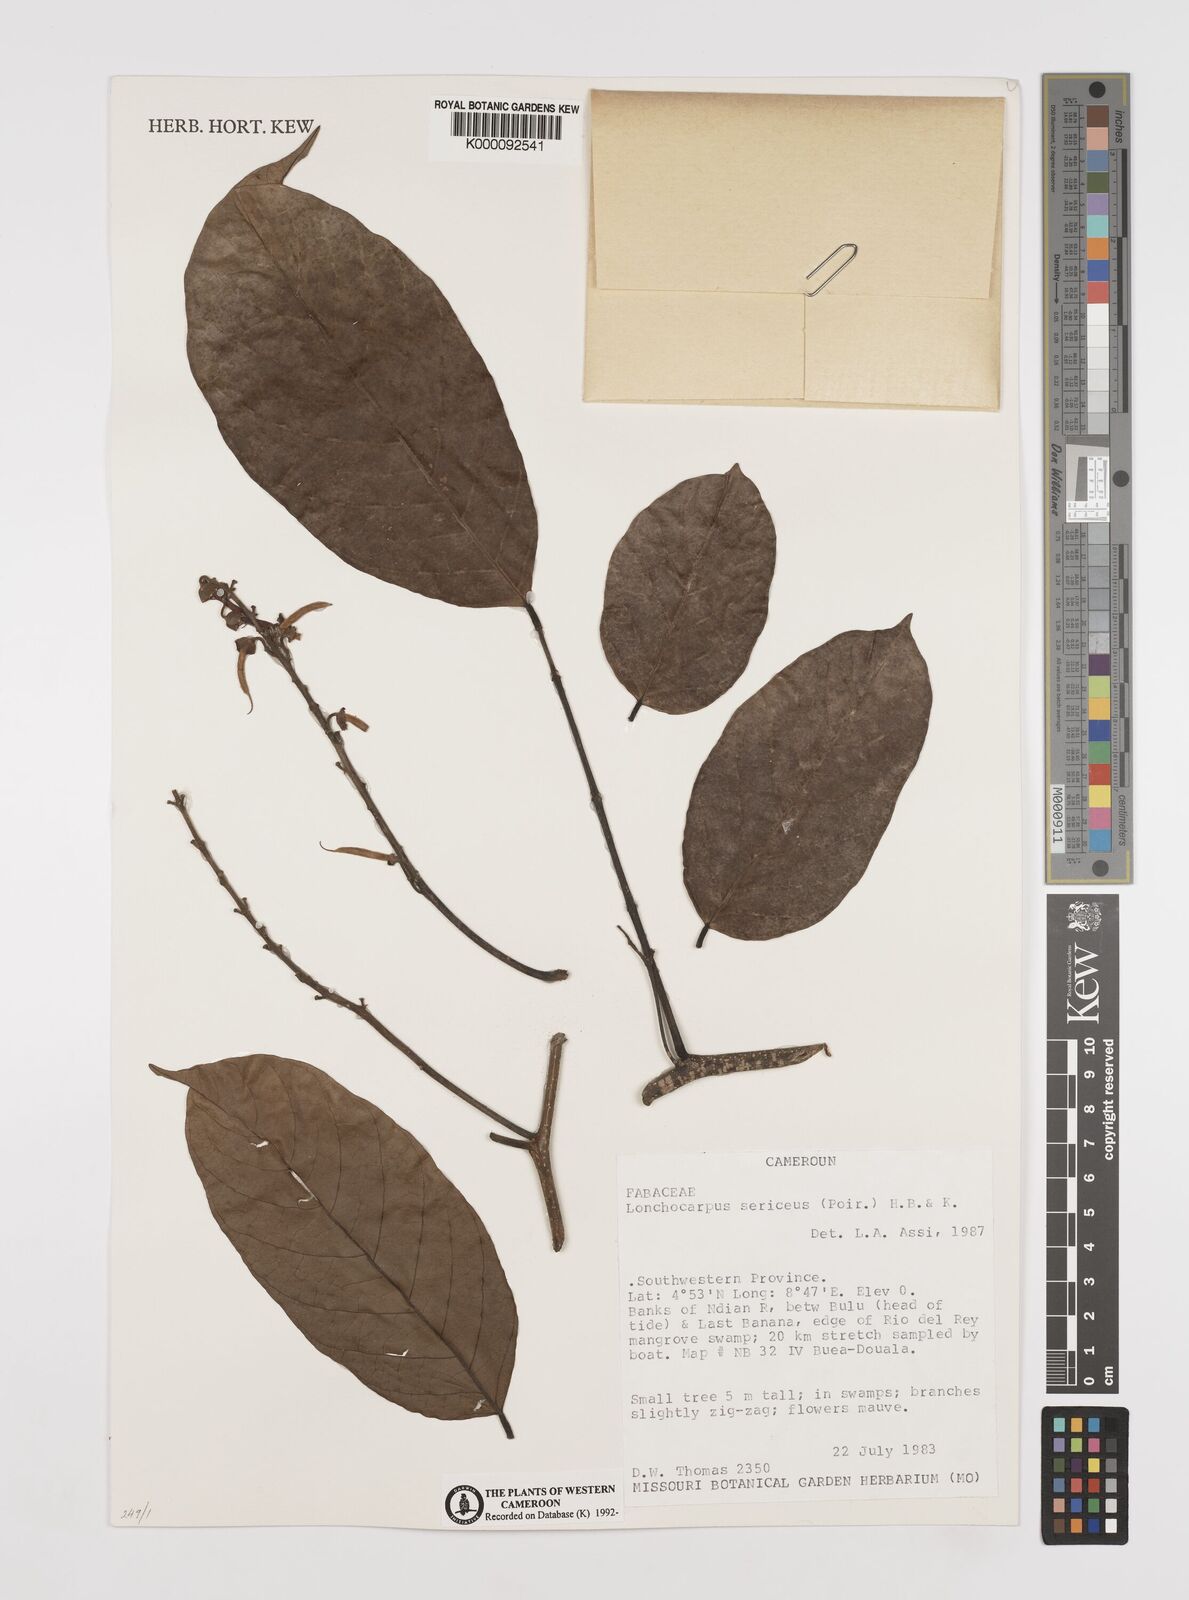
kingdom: Plantae
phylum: Tracheophyta
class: Magnoliopsida
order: Fabales
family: Fabaceae
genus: Lonchocarpus
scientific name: Lonchocarpus
